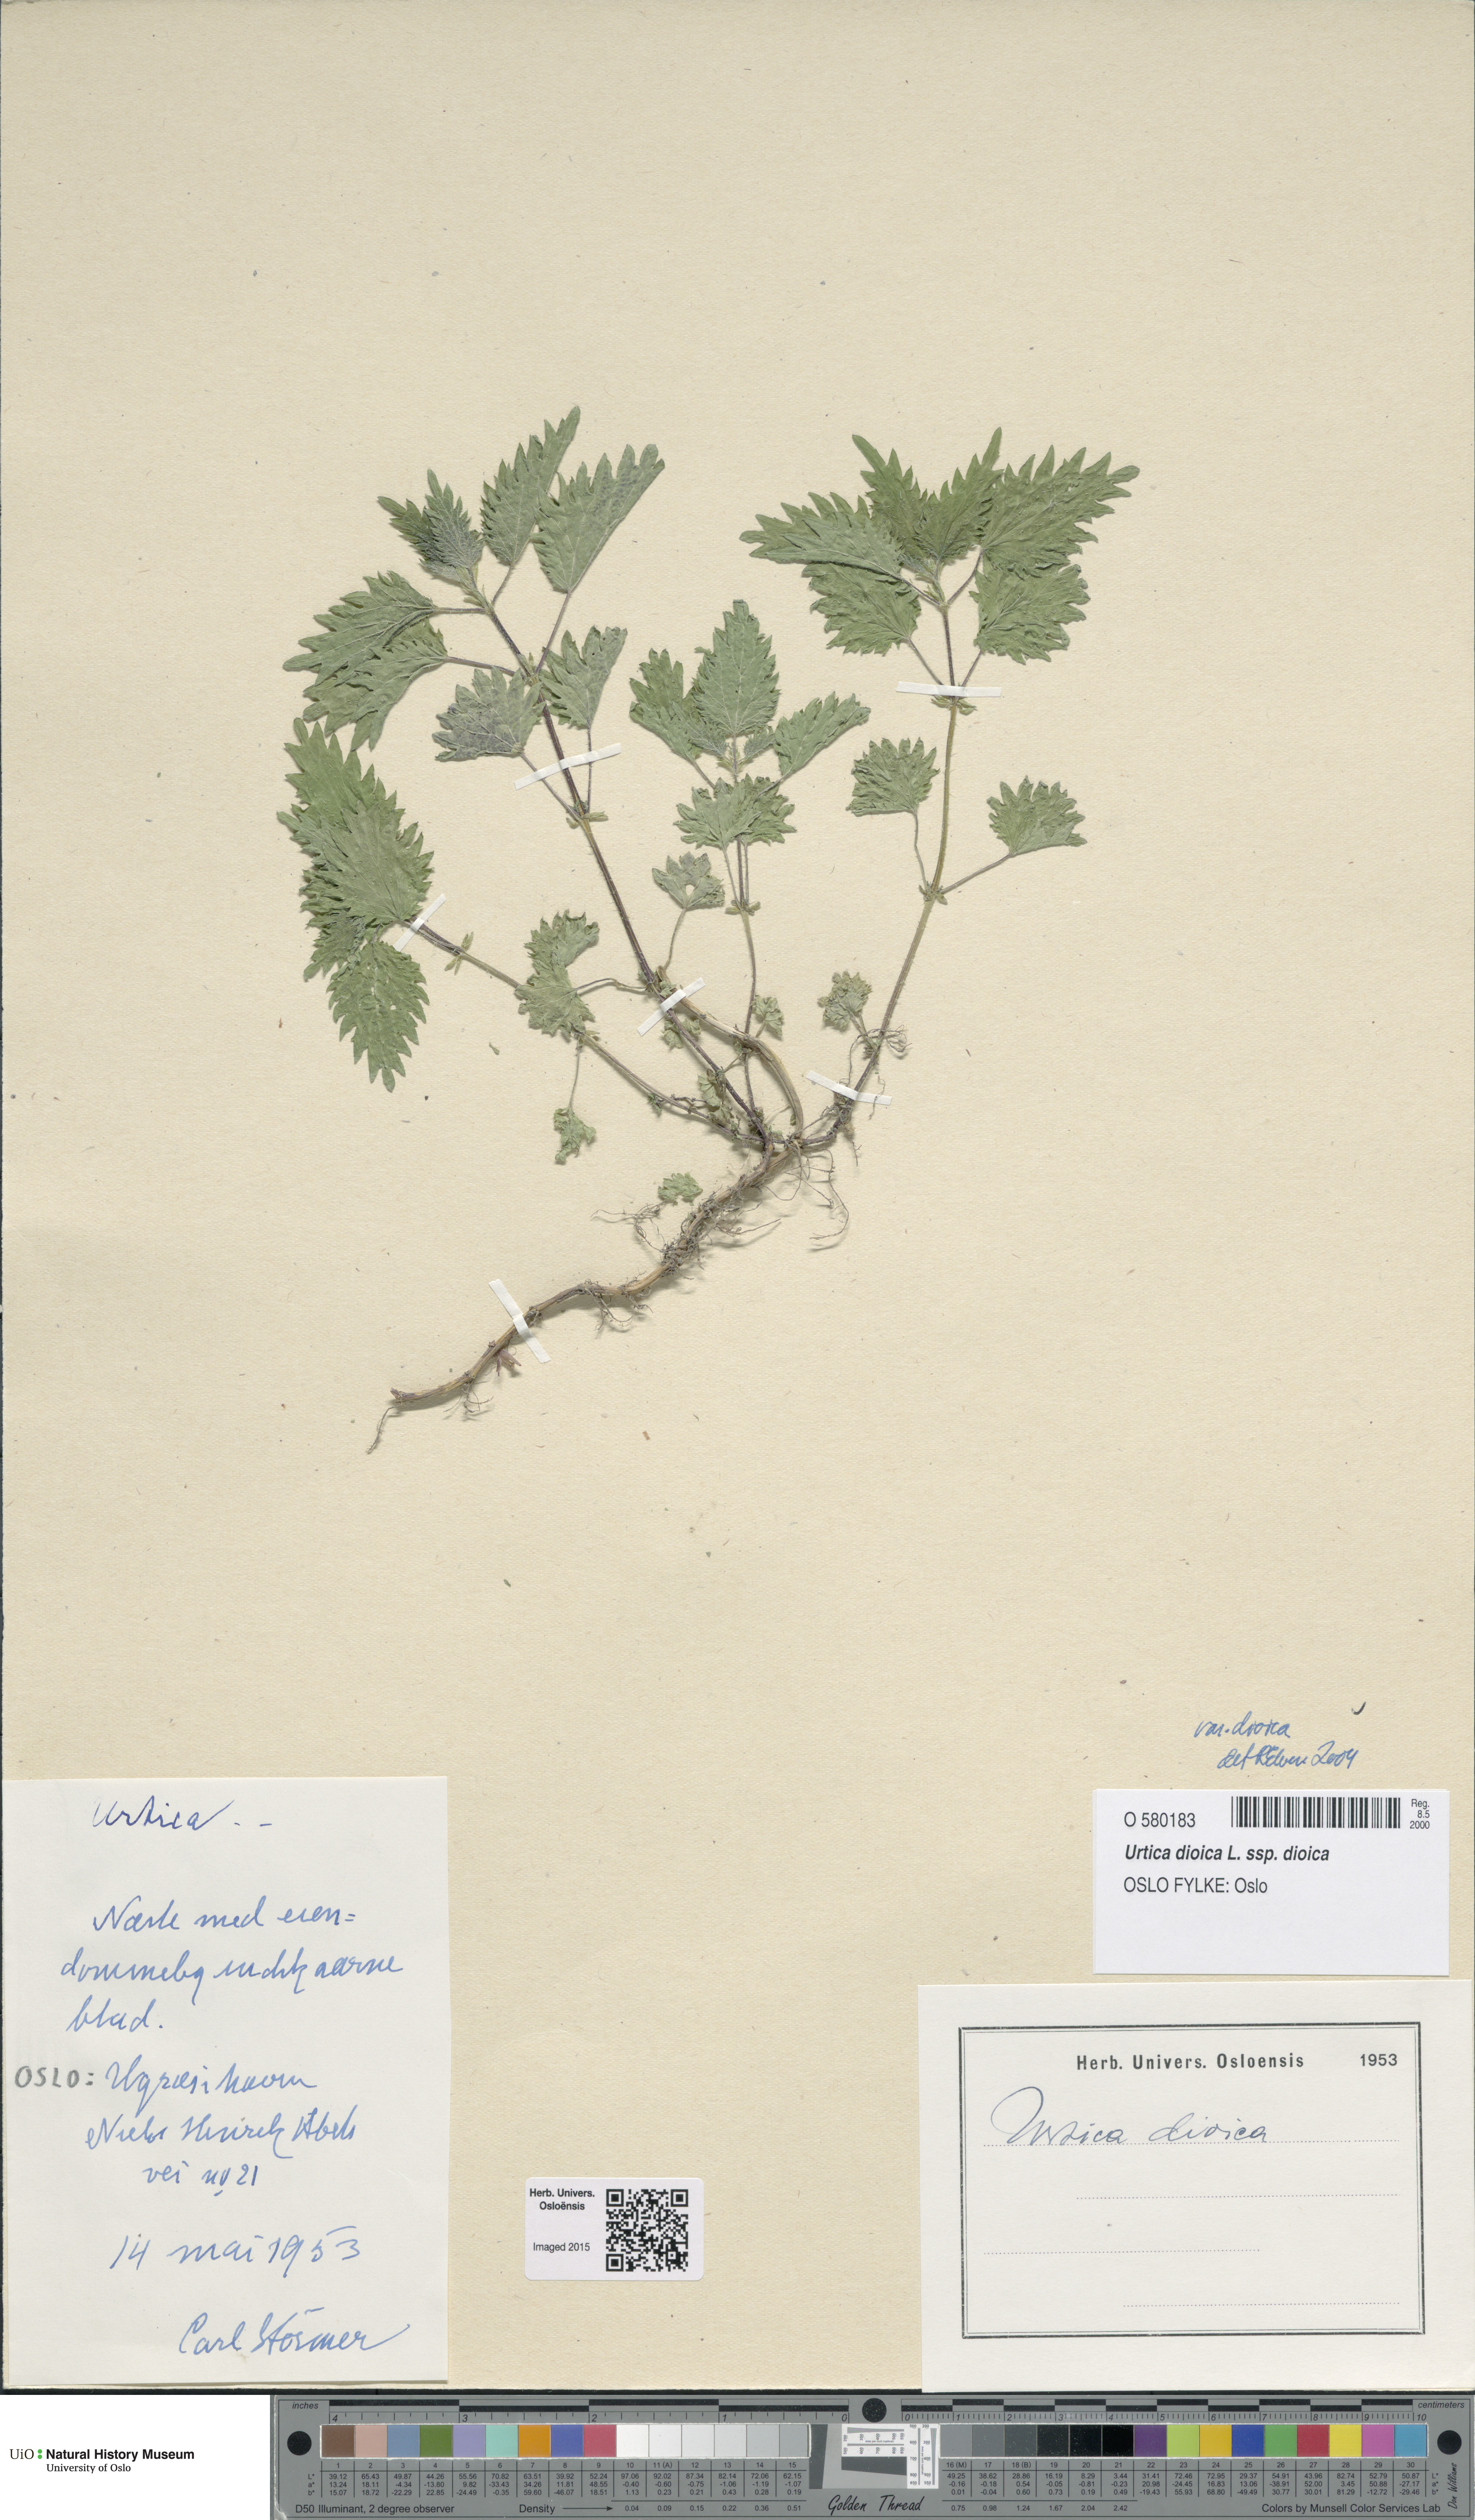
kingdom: Plantae
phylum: Tracheophyta
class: Magnoliopsida
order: Rosales
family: Urticaceae
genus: Urtica
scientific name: Urtica dioica
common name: Common nettle
